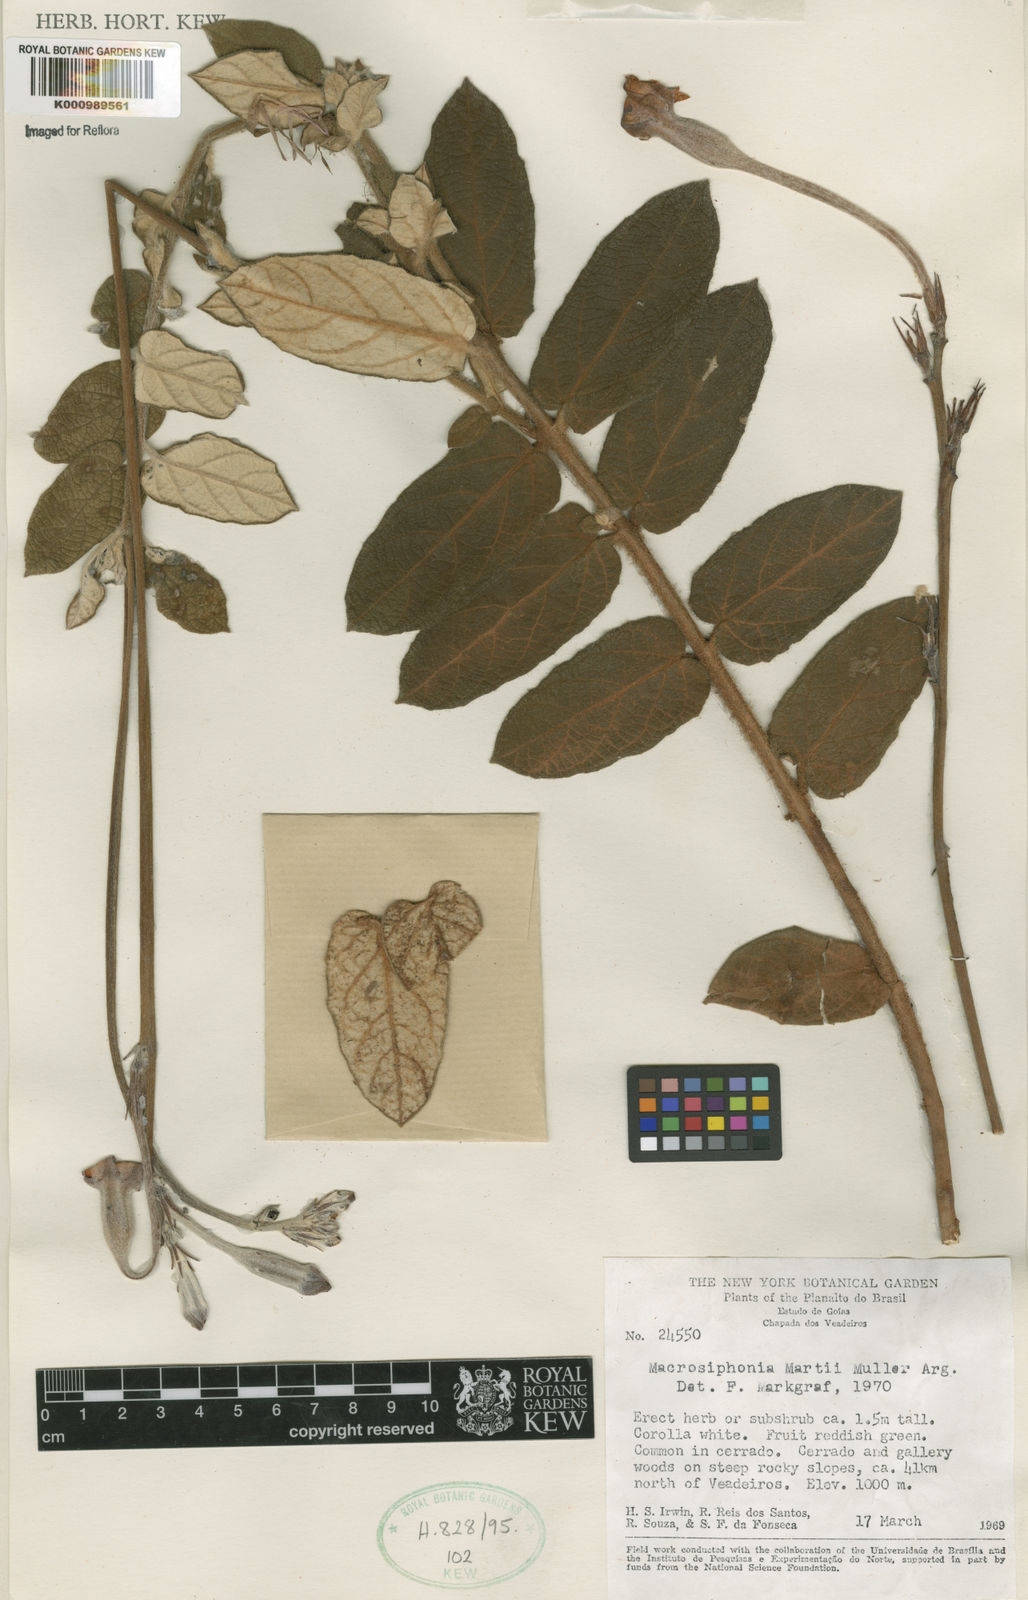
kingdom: Plantae
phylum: Tracheophyta
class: Magnoliopsida
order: Gentianales
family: Apocynaceae
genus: Mandevilla
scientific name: Mandevilla
